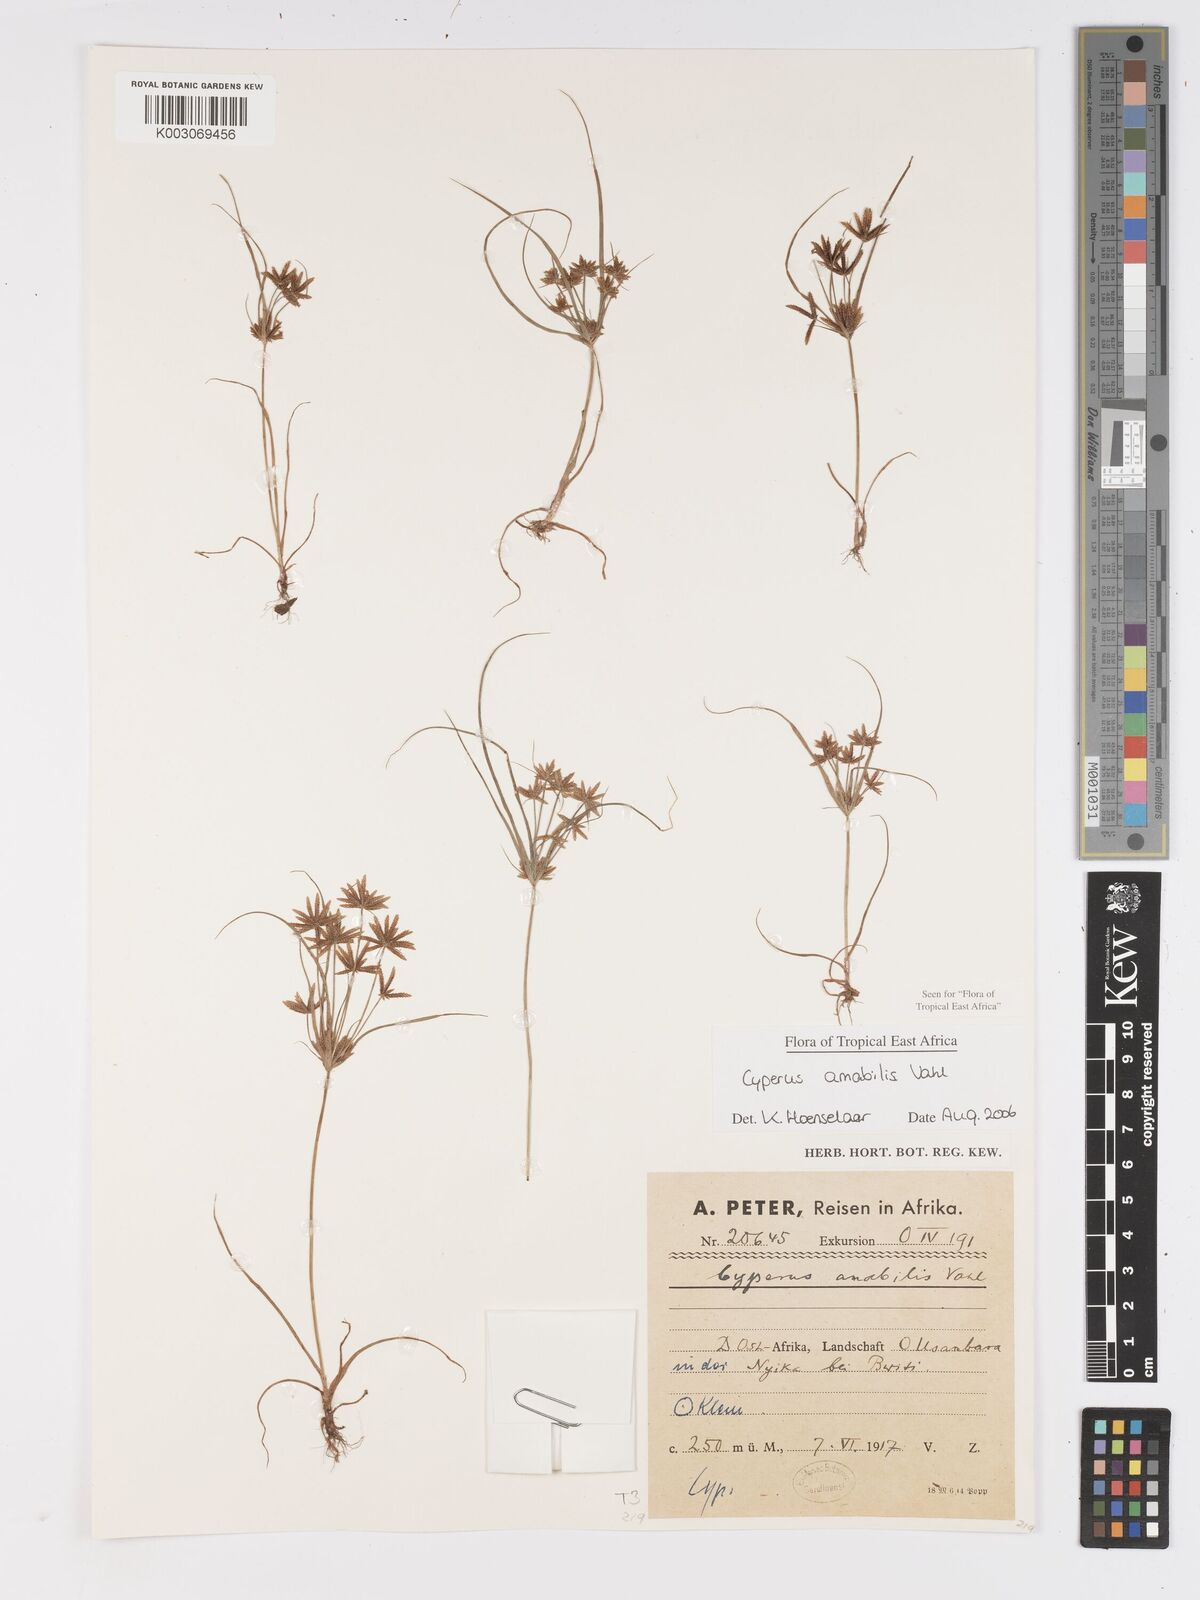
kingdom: Plantae
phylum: Tracheophyta
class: Liliopsida
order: Poales
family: Cyperaceae
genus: Cyperus
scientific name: Cyperus amabilis
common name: Foothill flat sedge
